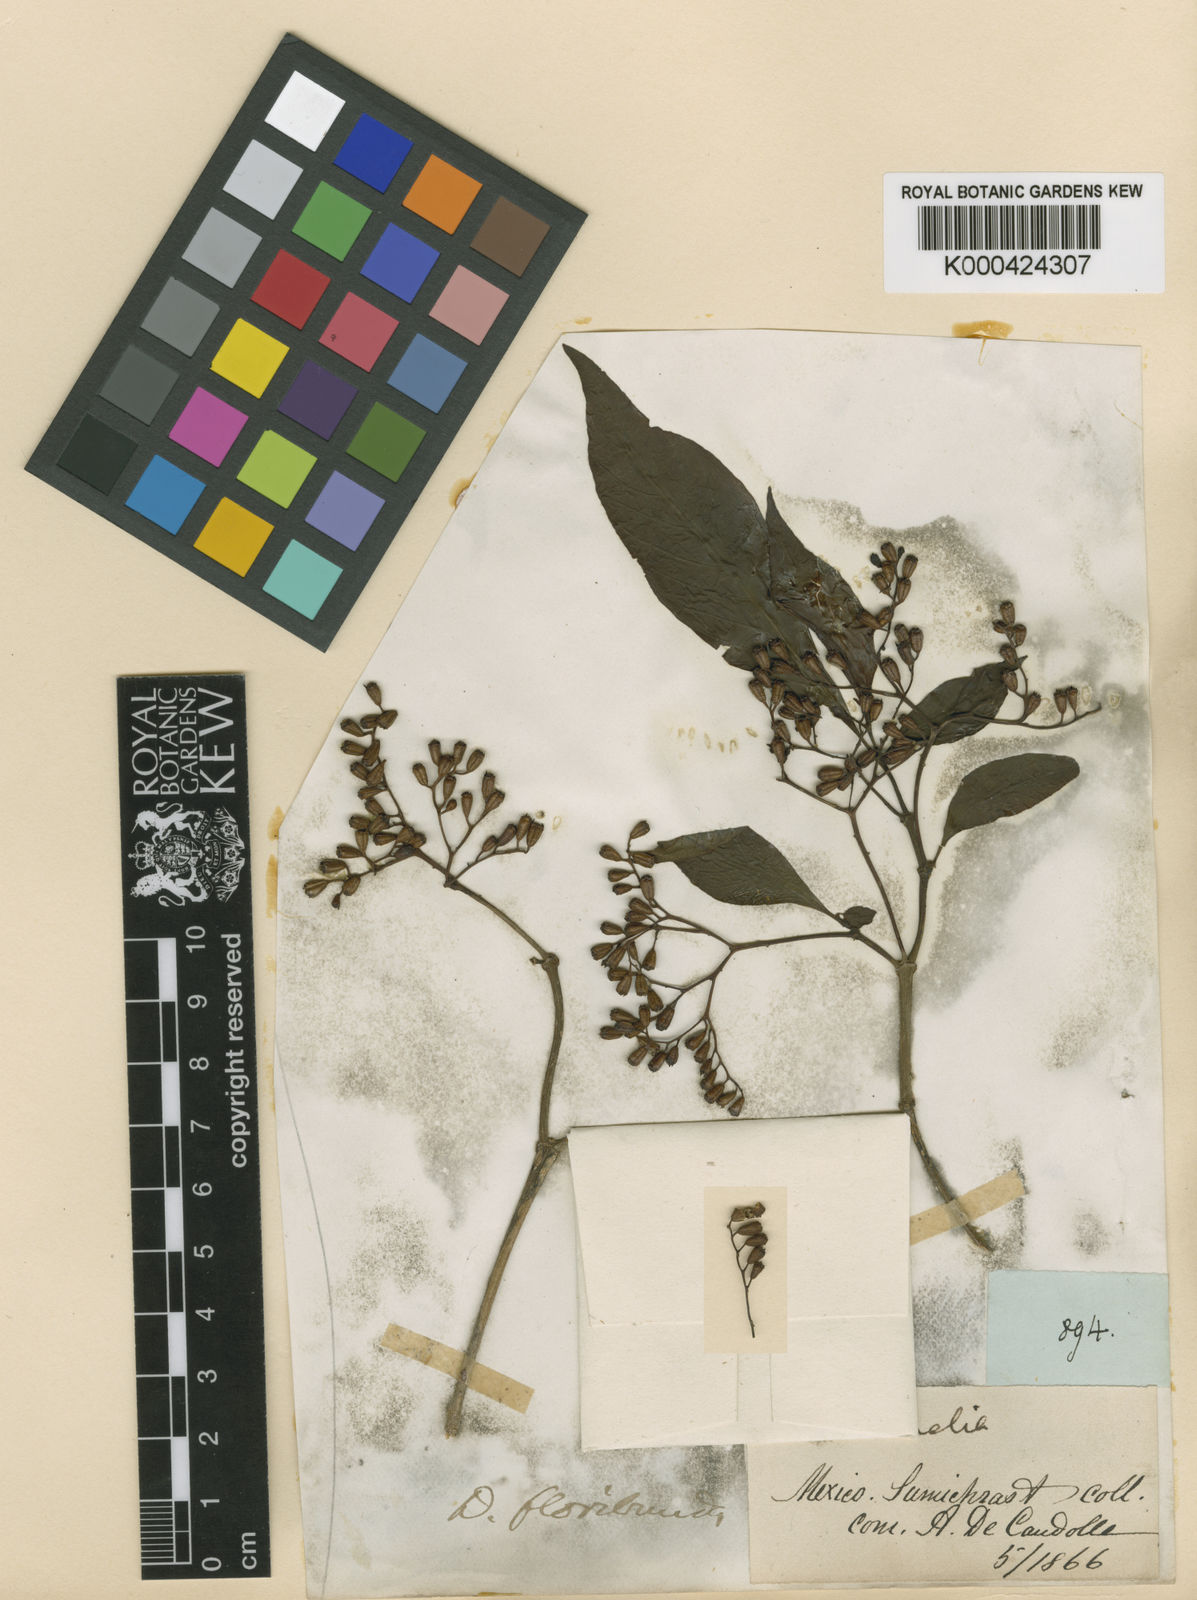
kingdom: Plantae
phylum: Tracheophyta
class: Magnoliopsida
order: Gentianales
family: Rubiaceae
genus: Deppea
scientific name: Deppea grandiflora
